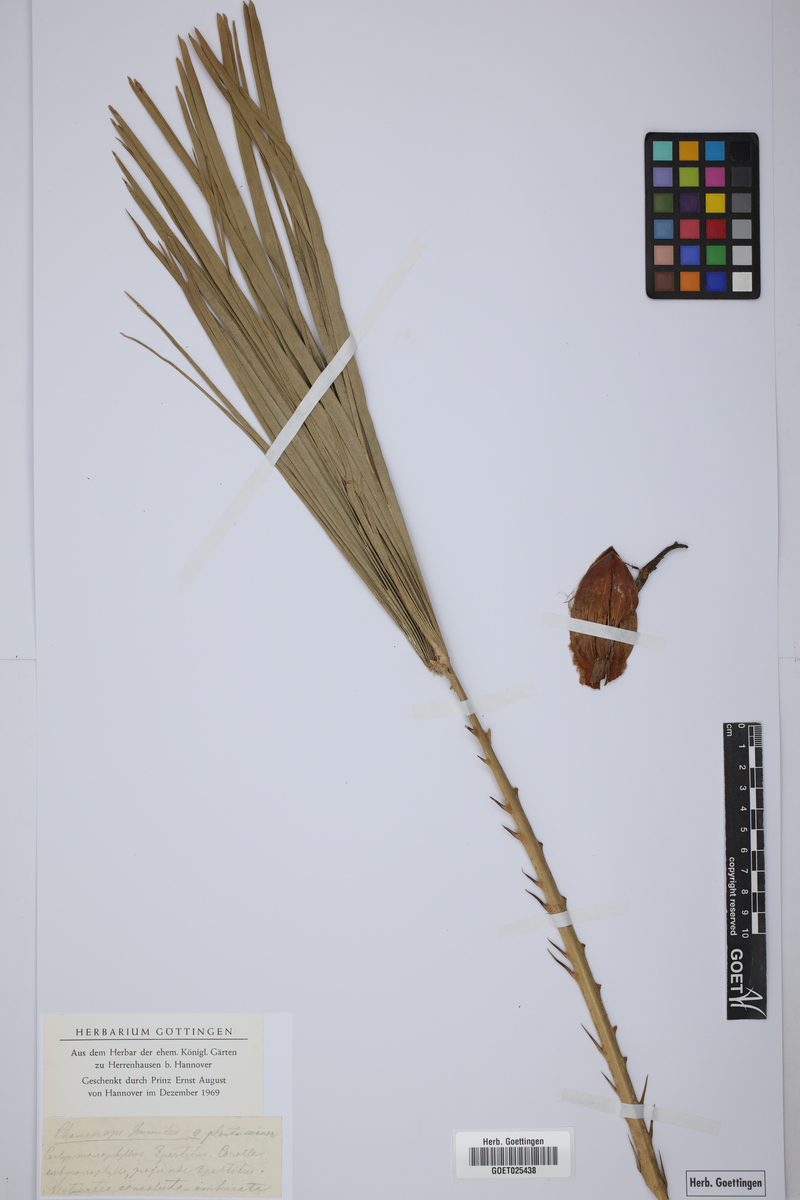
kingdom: Plantae
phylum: Tracheophyta
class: Liliopsida
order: Arecales
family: Arecaceae
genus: Chamaerops
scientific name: Chamaerops humilis
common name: Dwarf fan palm
